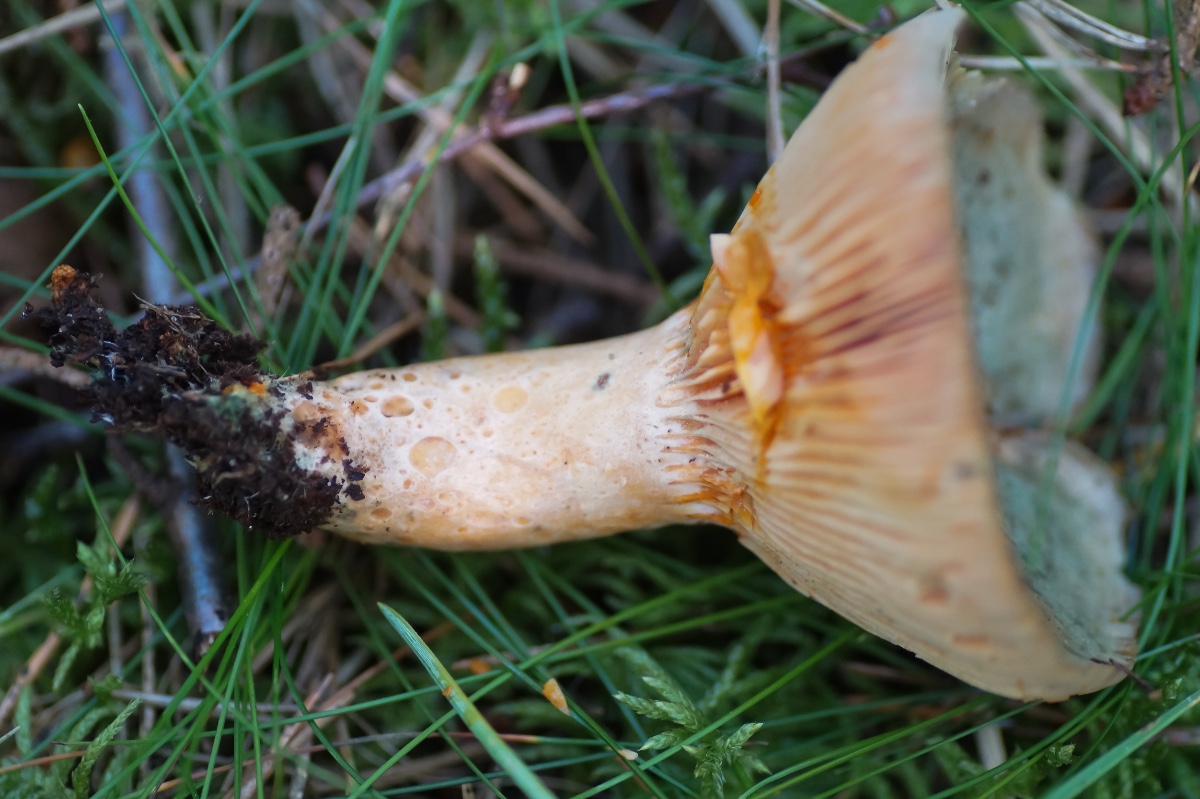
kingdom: Fungi
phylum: Basidiomycota
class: Agaricomycetes
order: Russulales
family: Russulaceae
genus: Lactarius
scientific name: Lactarius deliciosus
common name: velsmagende mælkehat
